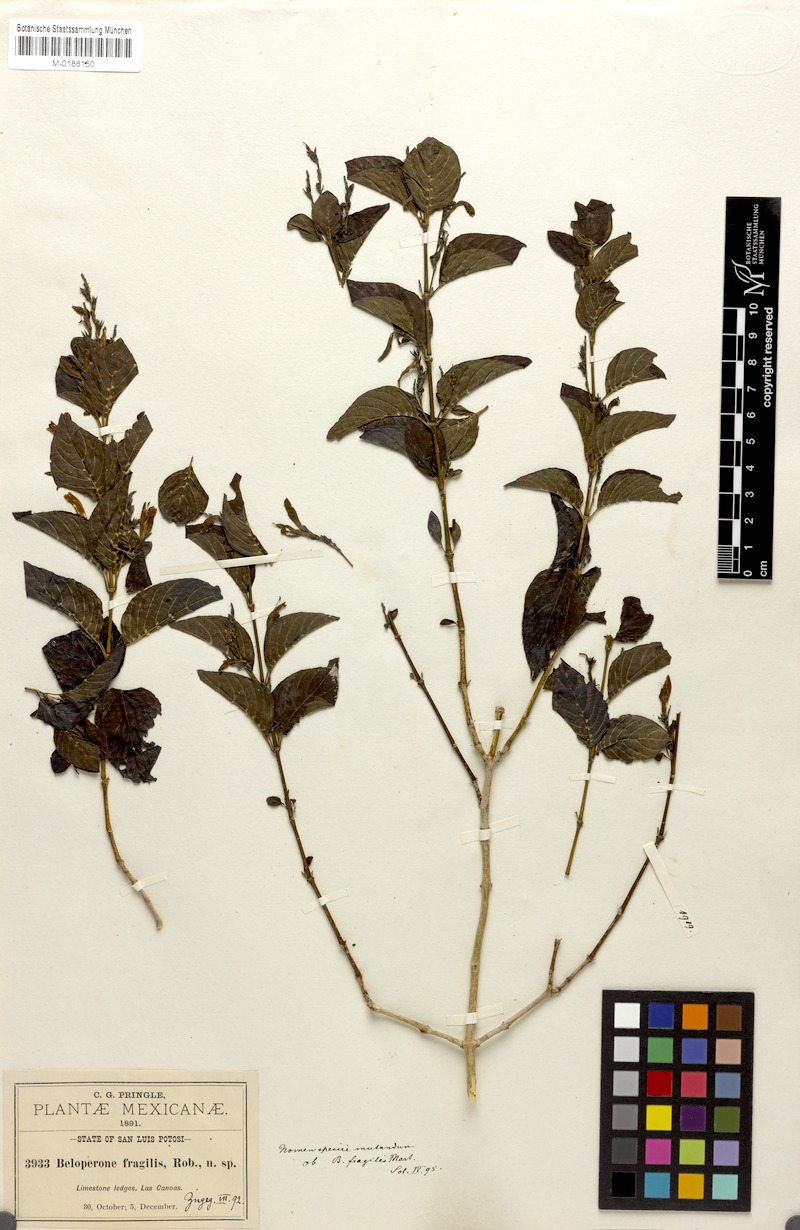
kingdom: Plantae
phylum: Tracheophyta
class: Magnoliopsida
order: Lamiales
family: Acanthaceae
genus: Justicia
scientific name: Justicia tenera
